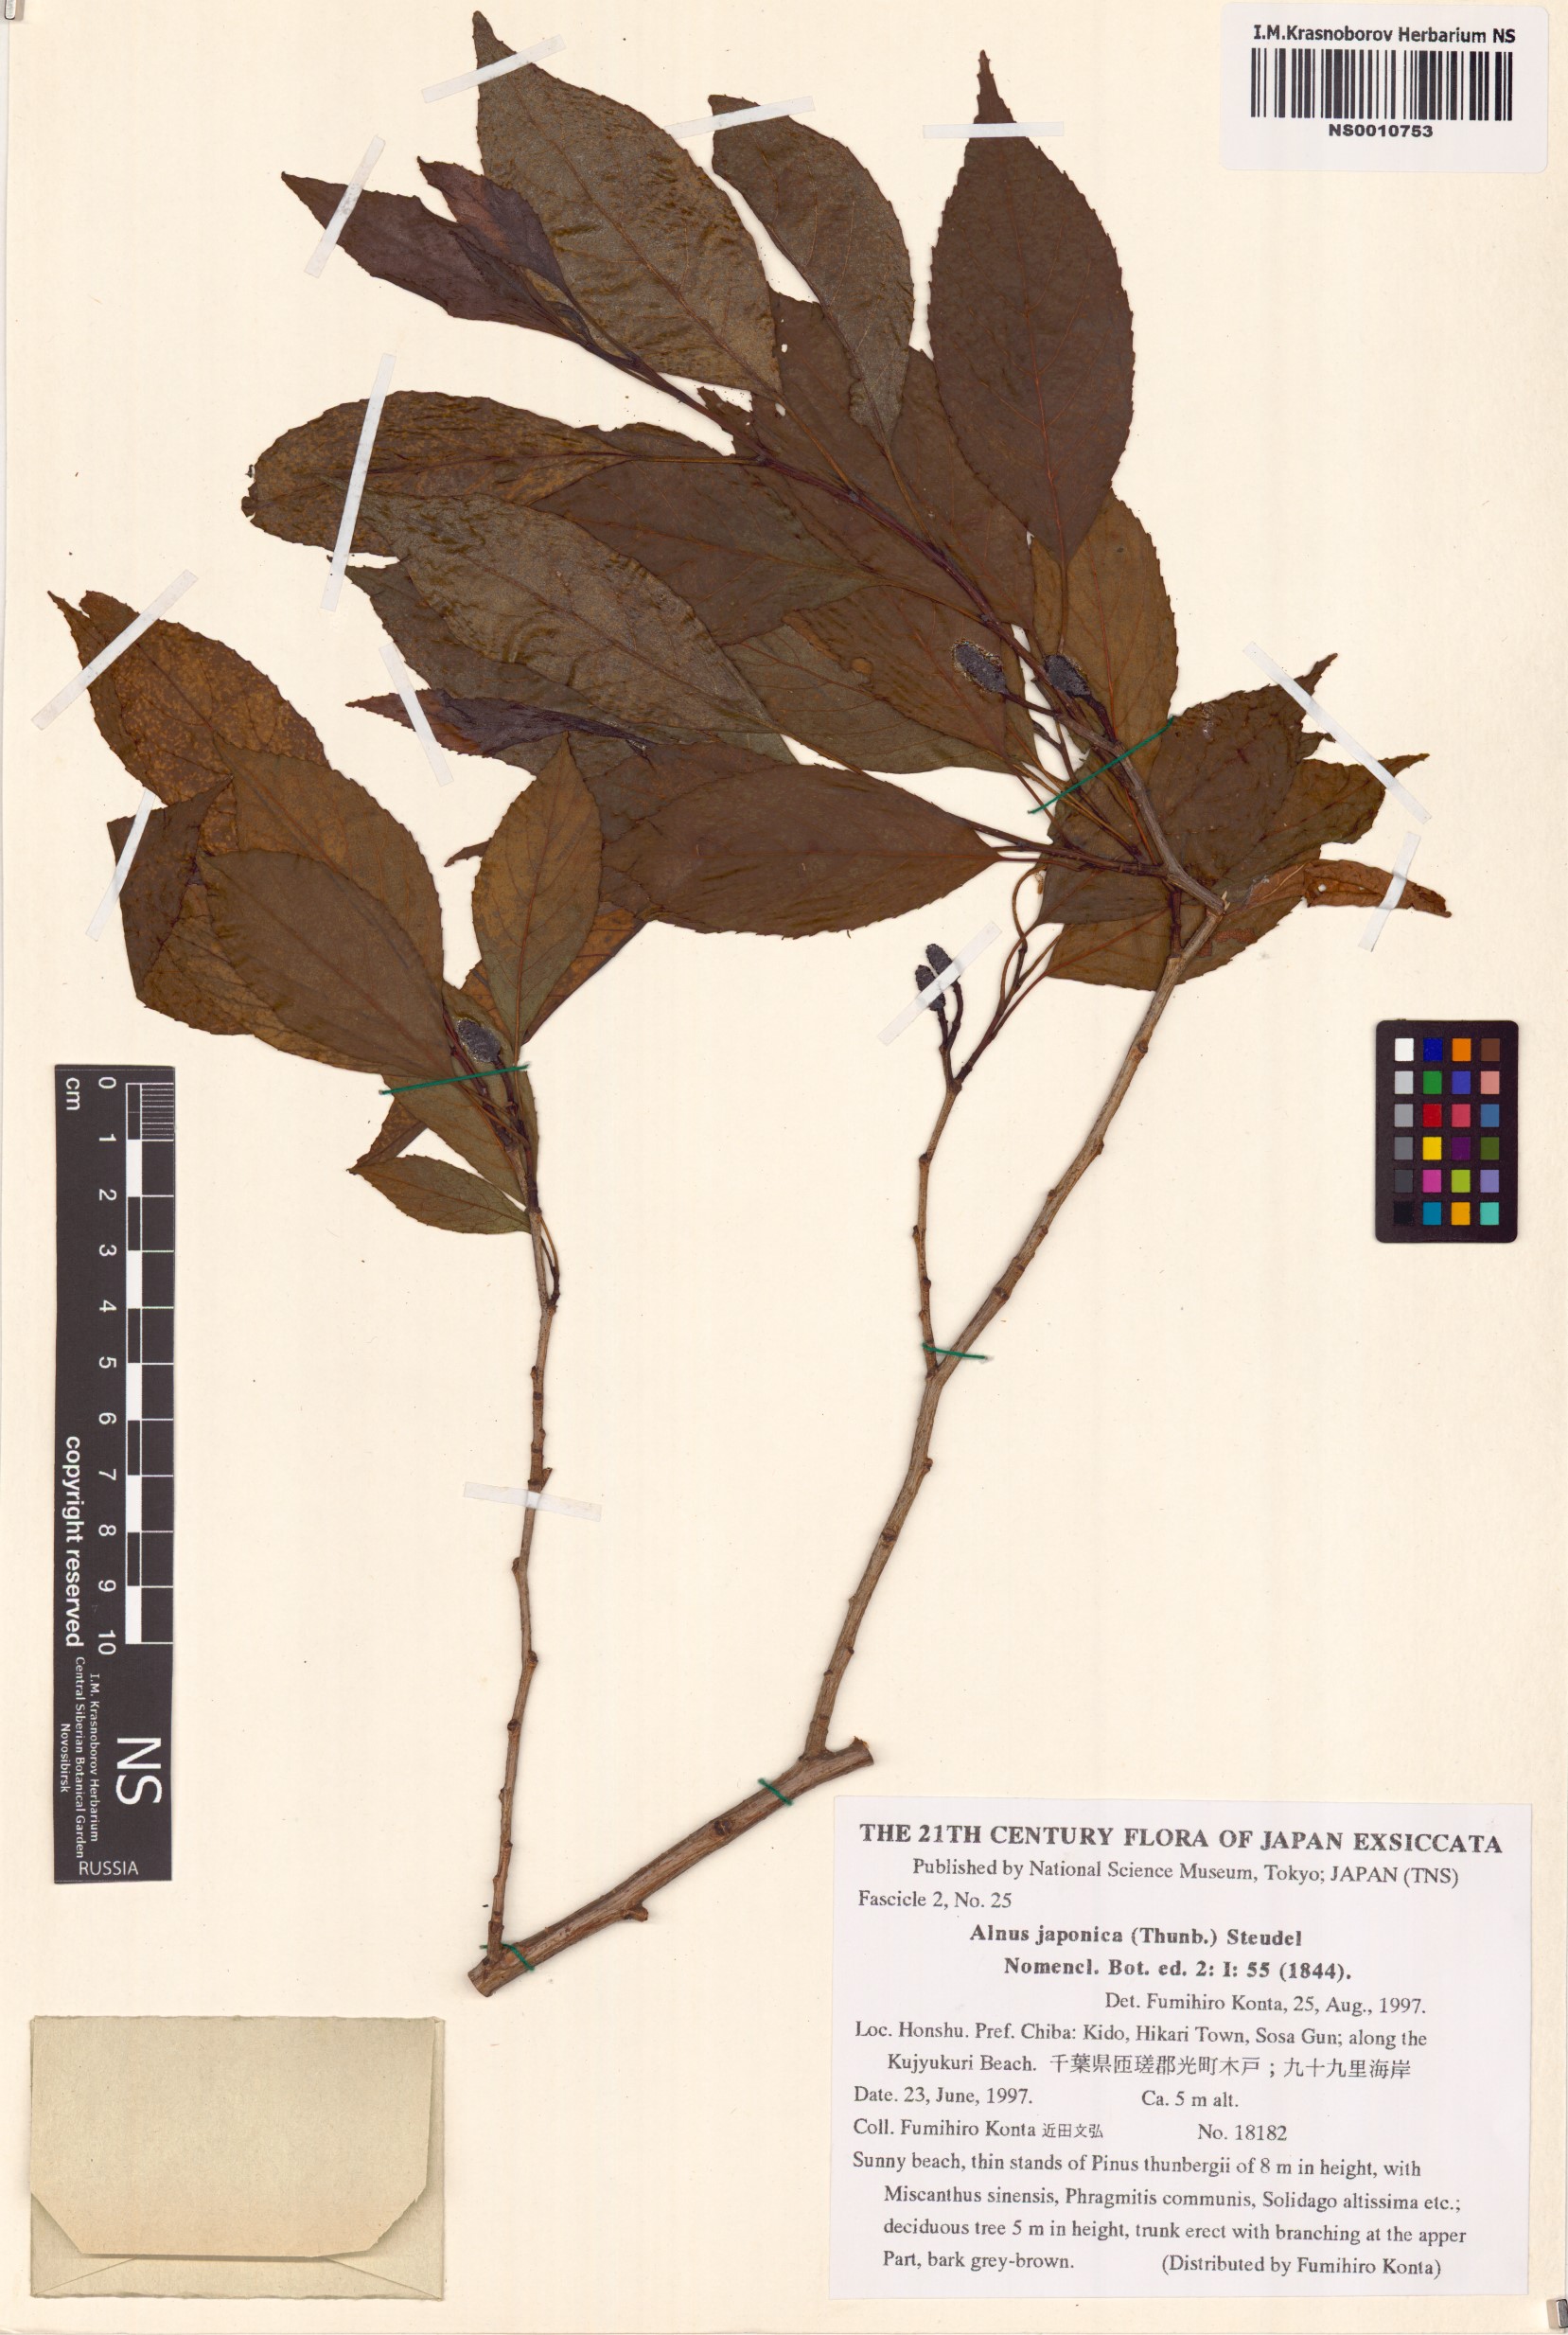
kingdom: Plantae
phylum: Tracheophyta
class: Magnoliopsida
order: Fagales
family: Betulaceae
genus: Alnus
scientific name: Alnus japonica
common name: Japanese alder
